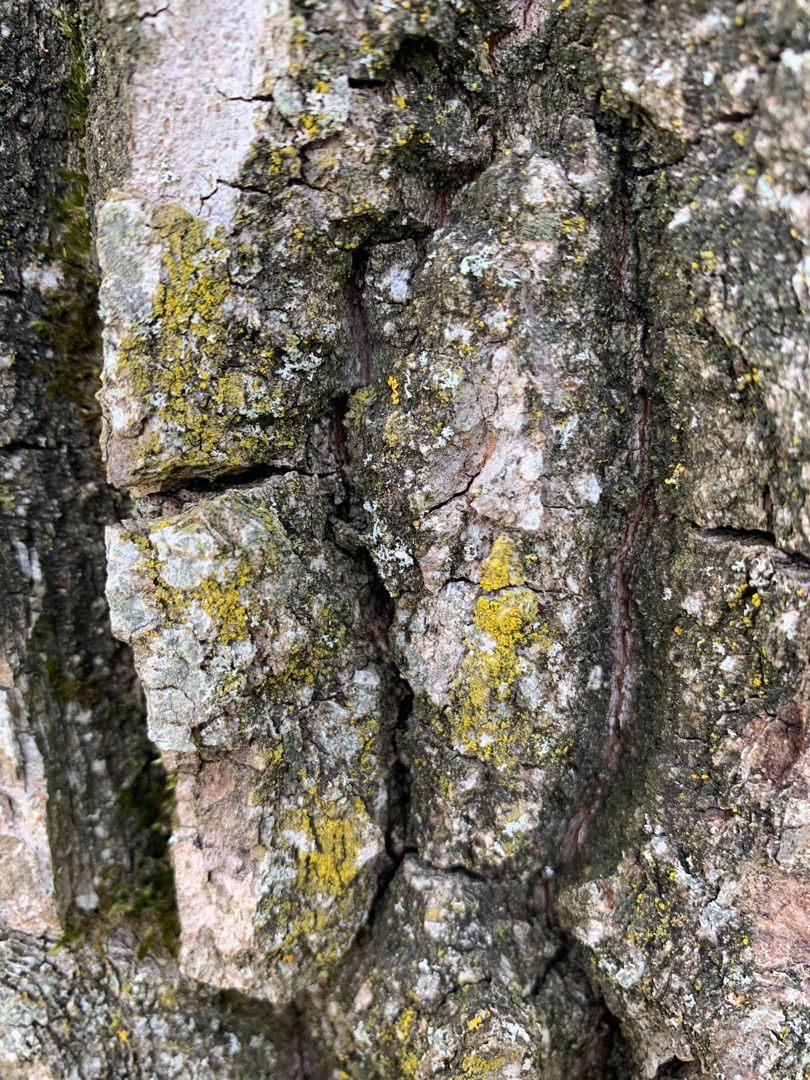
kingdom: Fungi
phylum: Ascomycota
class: Lecanoromycetes
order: Teloschistales
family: Teloschistaceae
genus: Xanthoria
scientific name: Xanthoria parietina
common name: Almindelig væggelav
